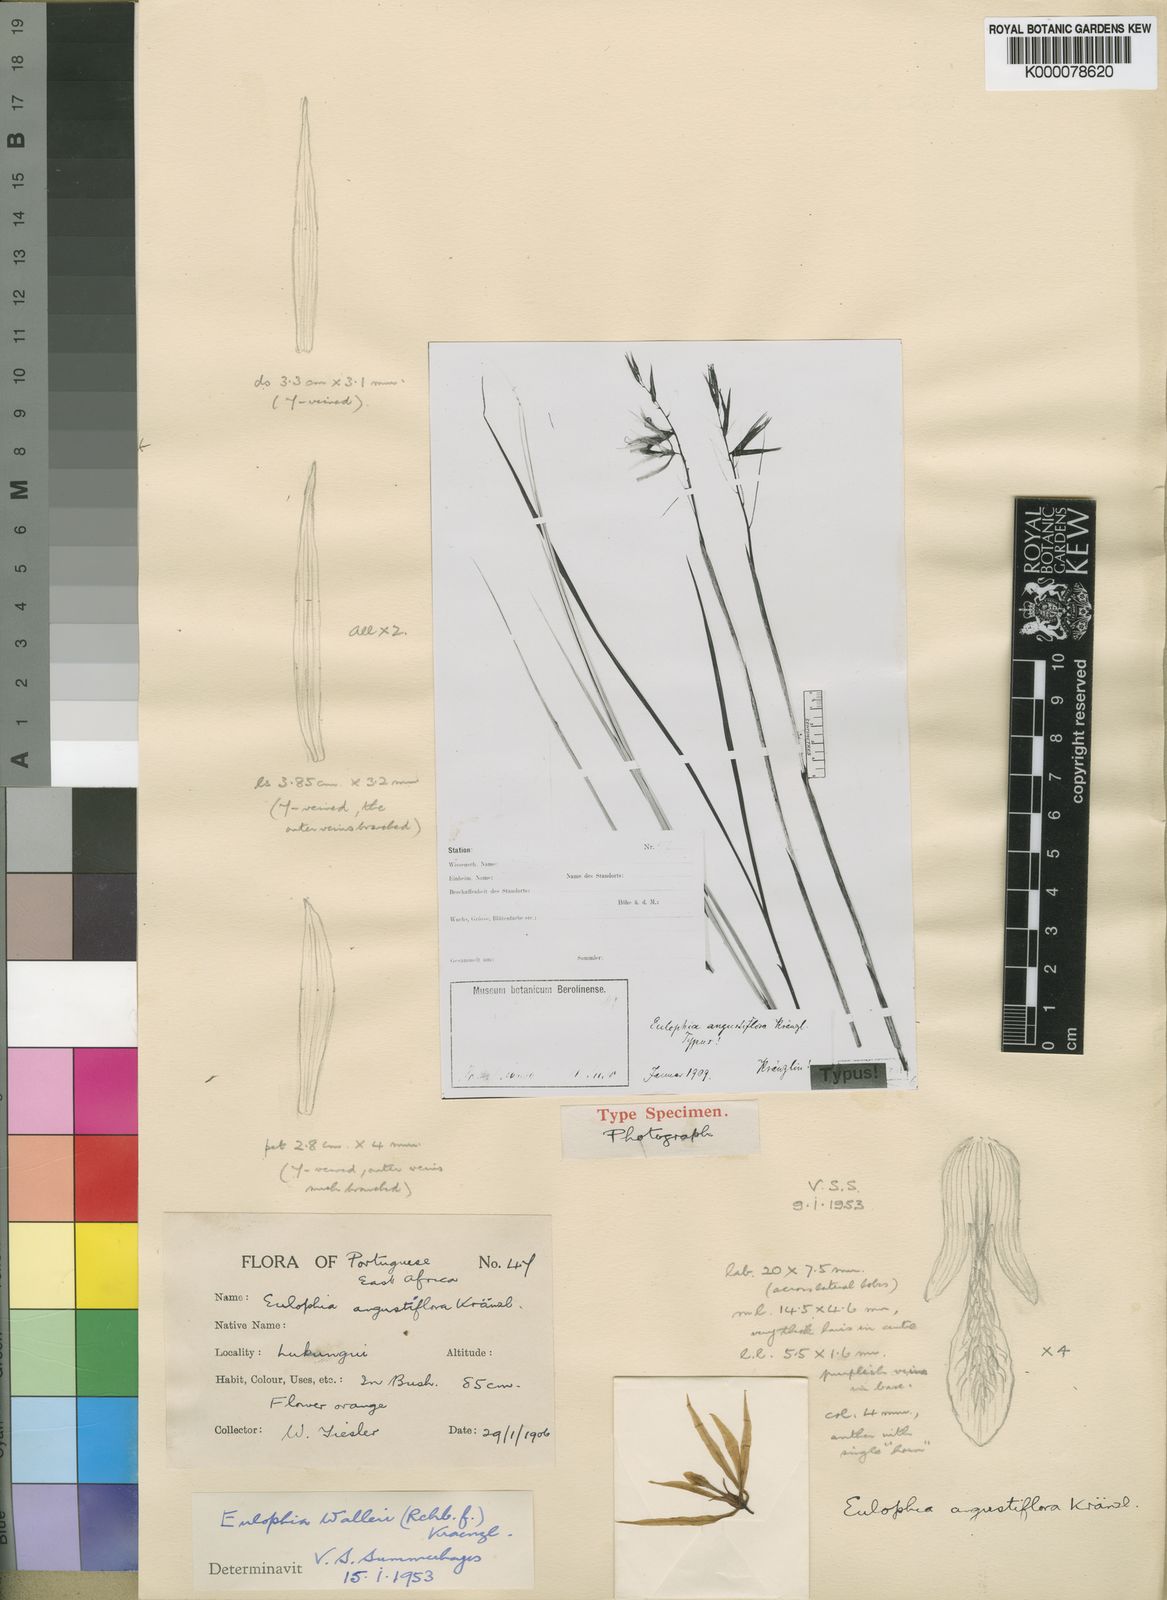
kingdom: Plantae
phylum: Tracheophyta
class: Liliopsida
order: Asparagales
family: Orchidaceae
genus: Eulophia
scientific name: Eulophia walleri
